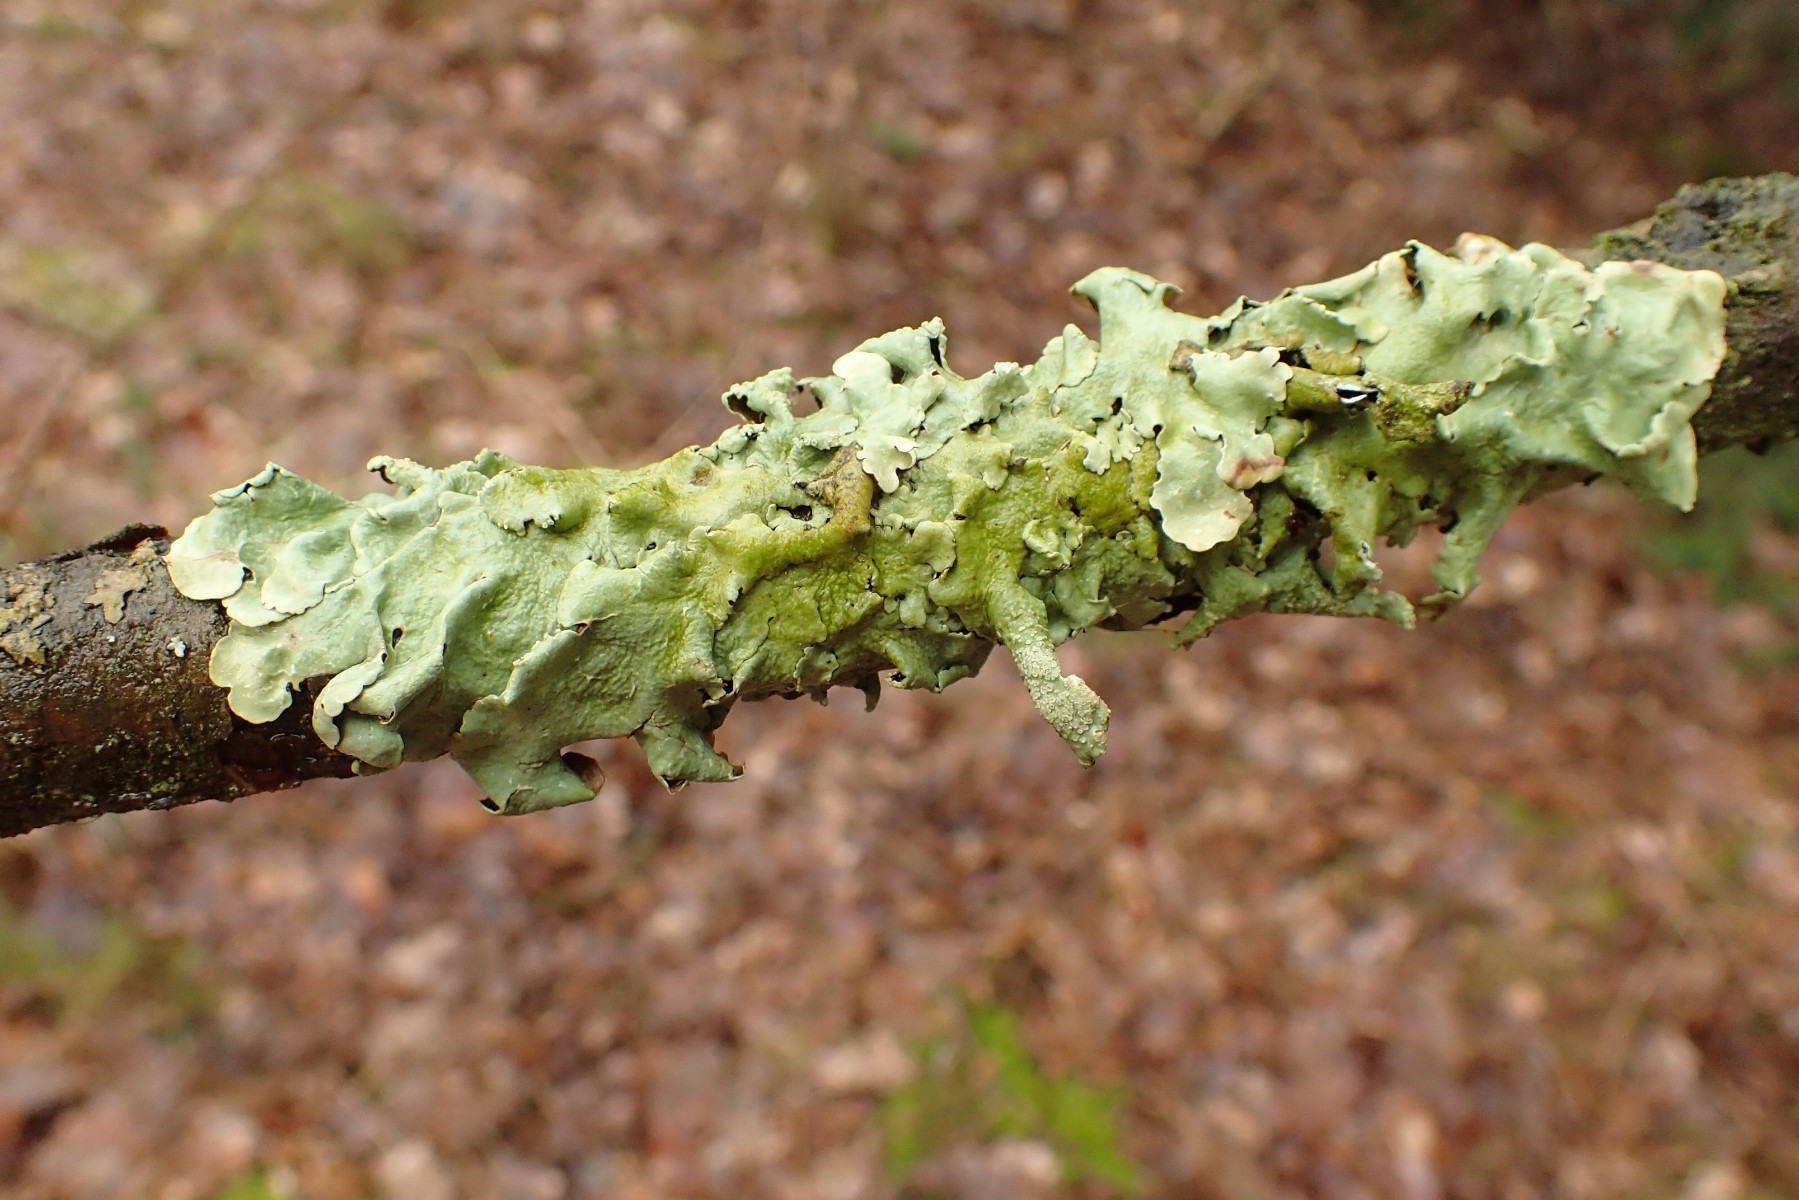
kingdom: Fungi
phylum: Ascomycota
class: Lecanoromycetes
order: Lecanorales
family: Parmeliaceae
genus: Flavoparmelia
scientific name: Flavoparmelia caperata
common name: gulgrøn skållav
